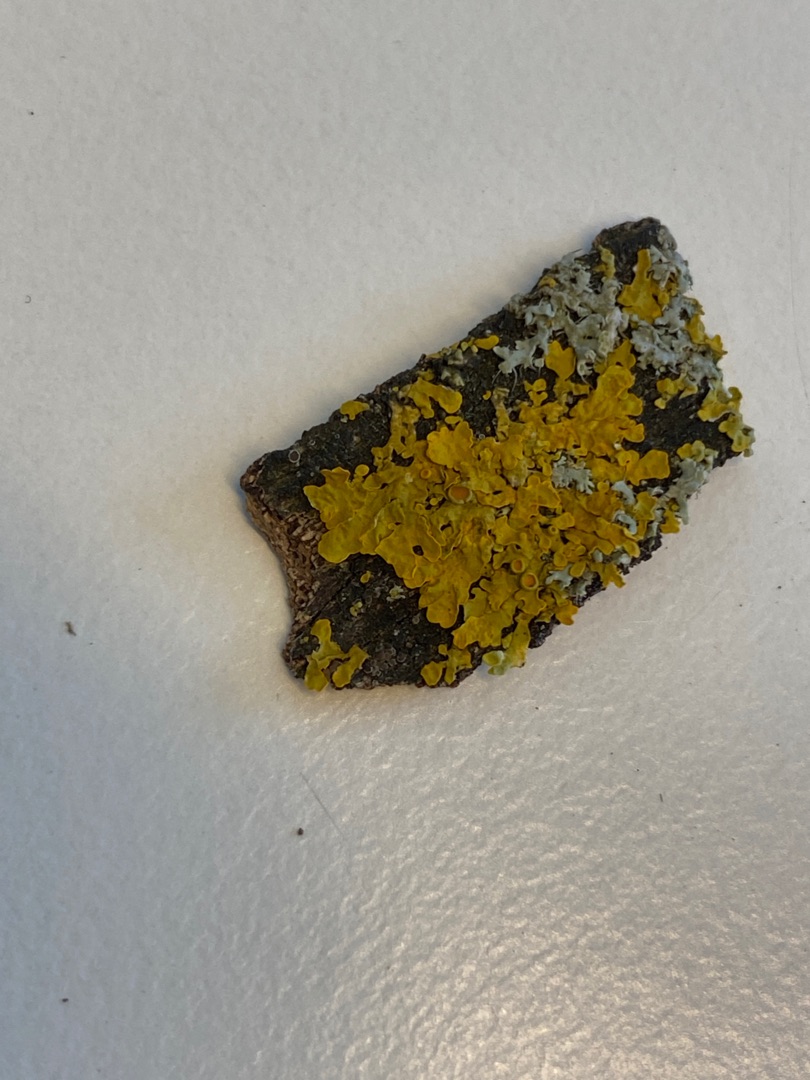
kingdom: Fungi
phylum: Ascomycota
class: Lecanoromycetes
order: Teloschistales
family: Teloschistaceae
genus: Xanthoria
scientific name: Xanthoria parietina
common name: Almindelig væggelav
